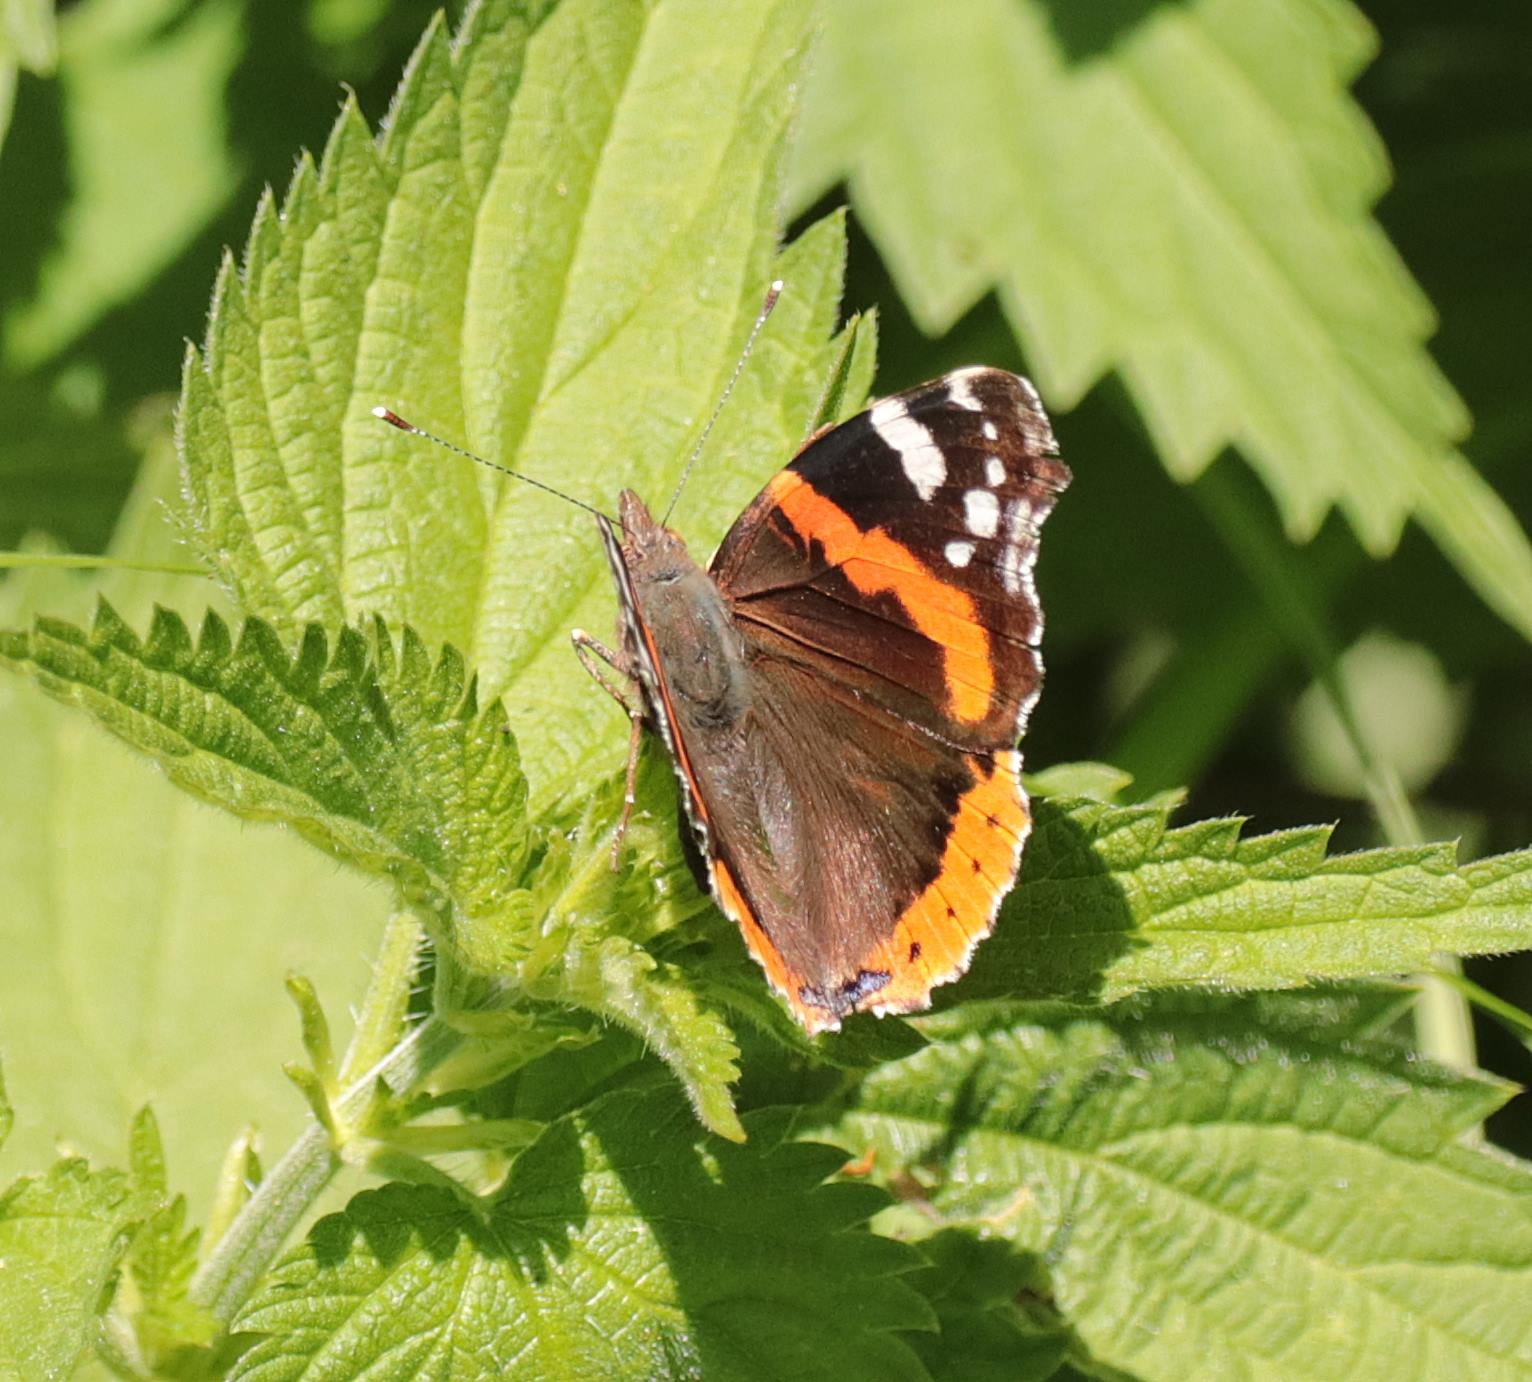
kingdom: Animalia
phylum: Arthropoda
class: Insecta
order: Lepidoptera
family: Nymphalidae
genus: Vanessa
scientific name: Vanessa atalanta
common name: Admiral
